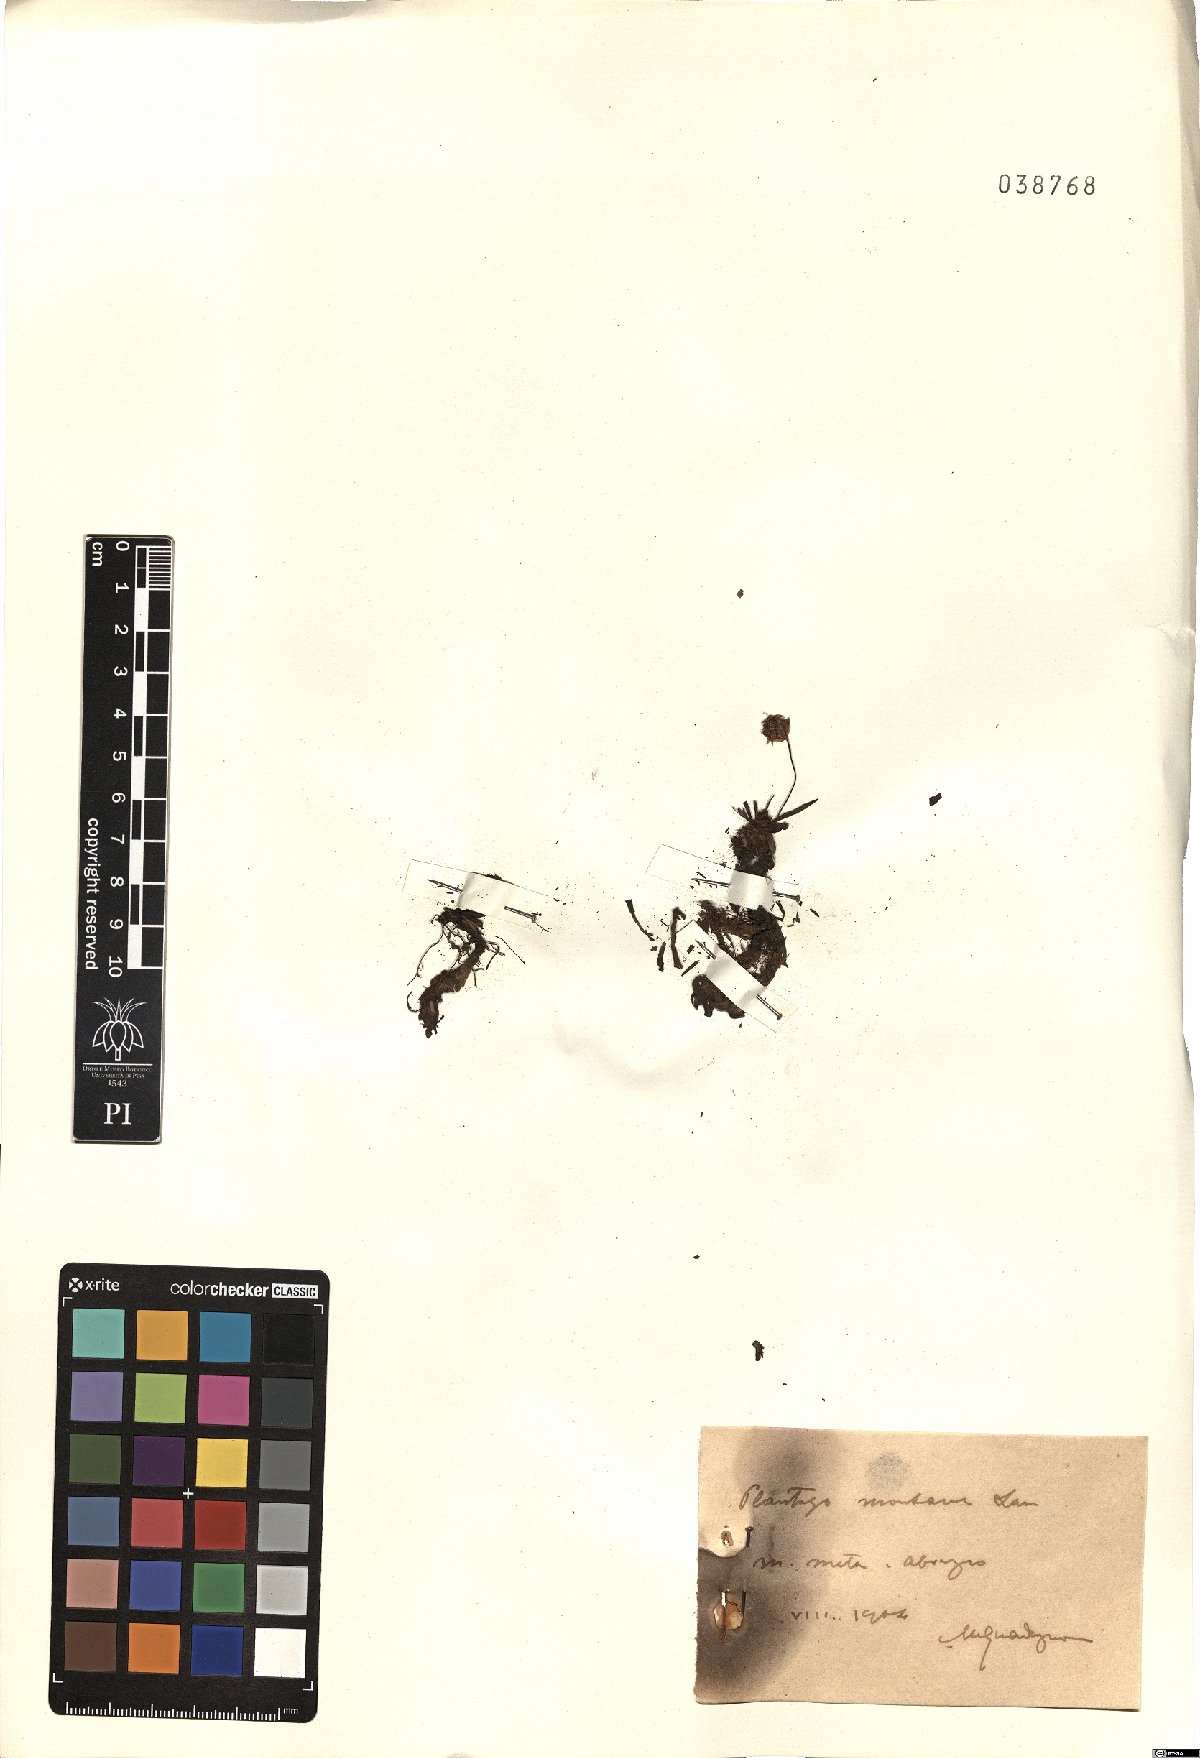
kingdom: Plantae
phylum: Tracheophyta
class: Magnoliopsida
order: Lamiales
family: Plantaginaceae
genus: Plantago
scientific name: Plantago atrata
